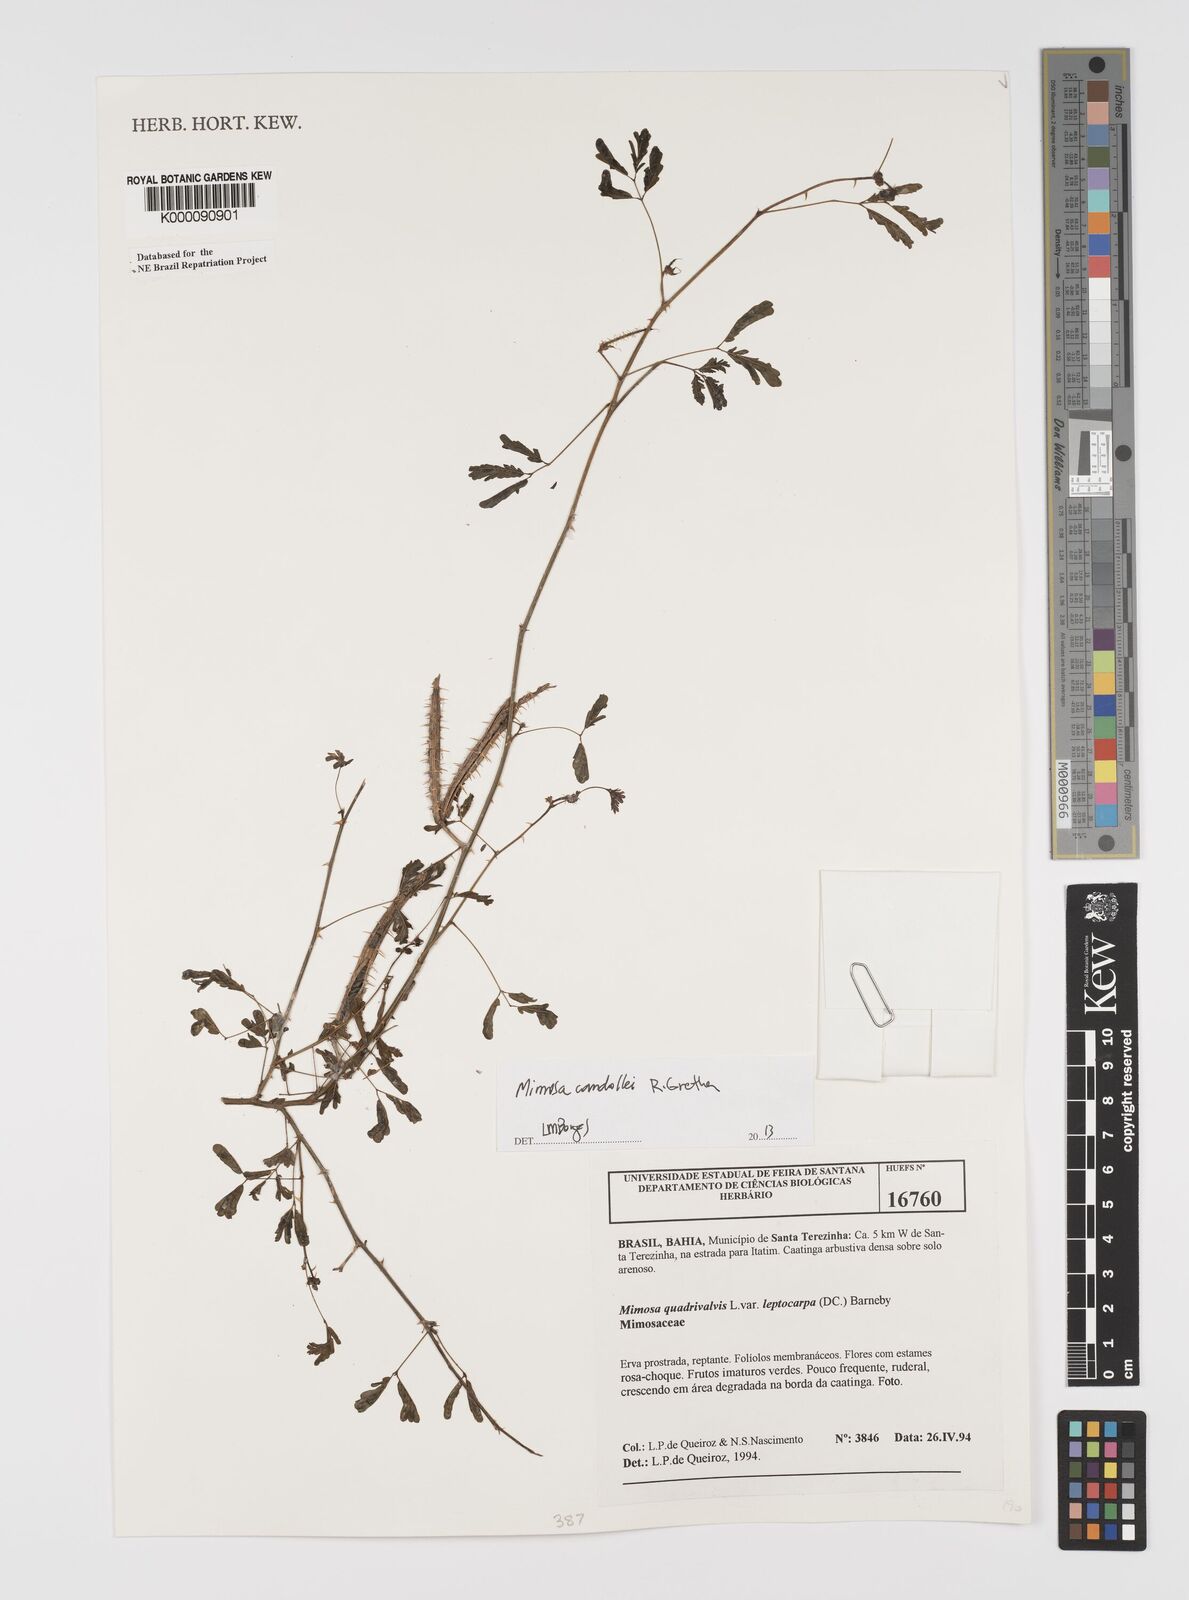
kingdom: Plantae
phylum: Tracheophyta
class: Magnoliopsida
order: Fabales
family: Fabaceae
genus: Mimosa
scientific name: Mimosa candollei
